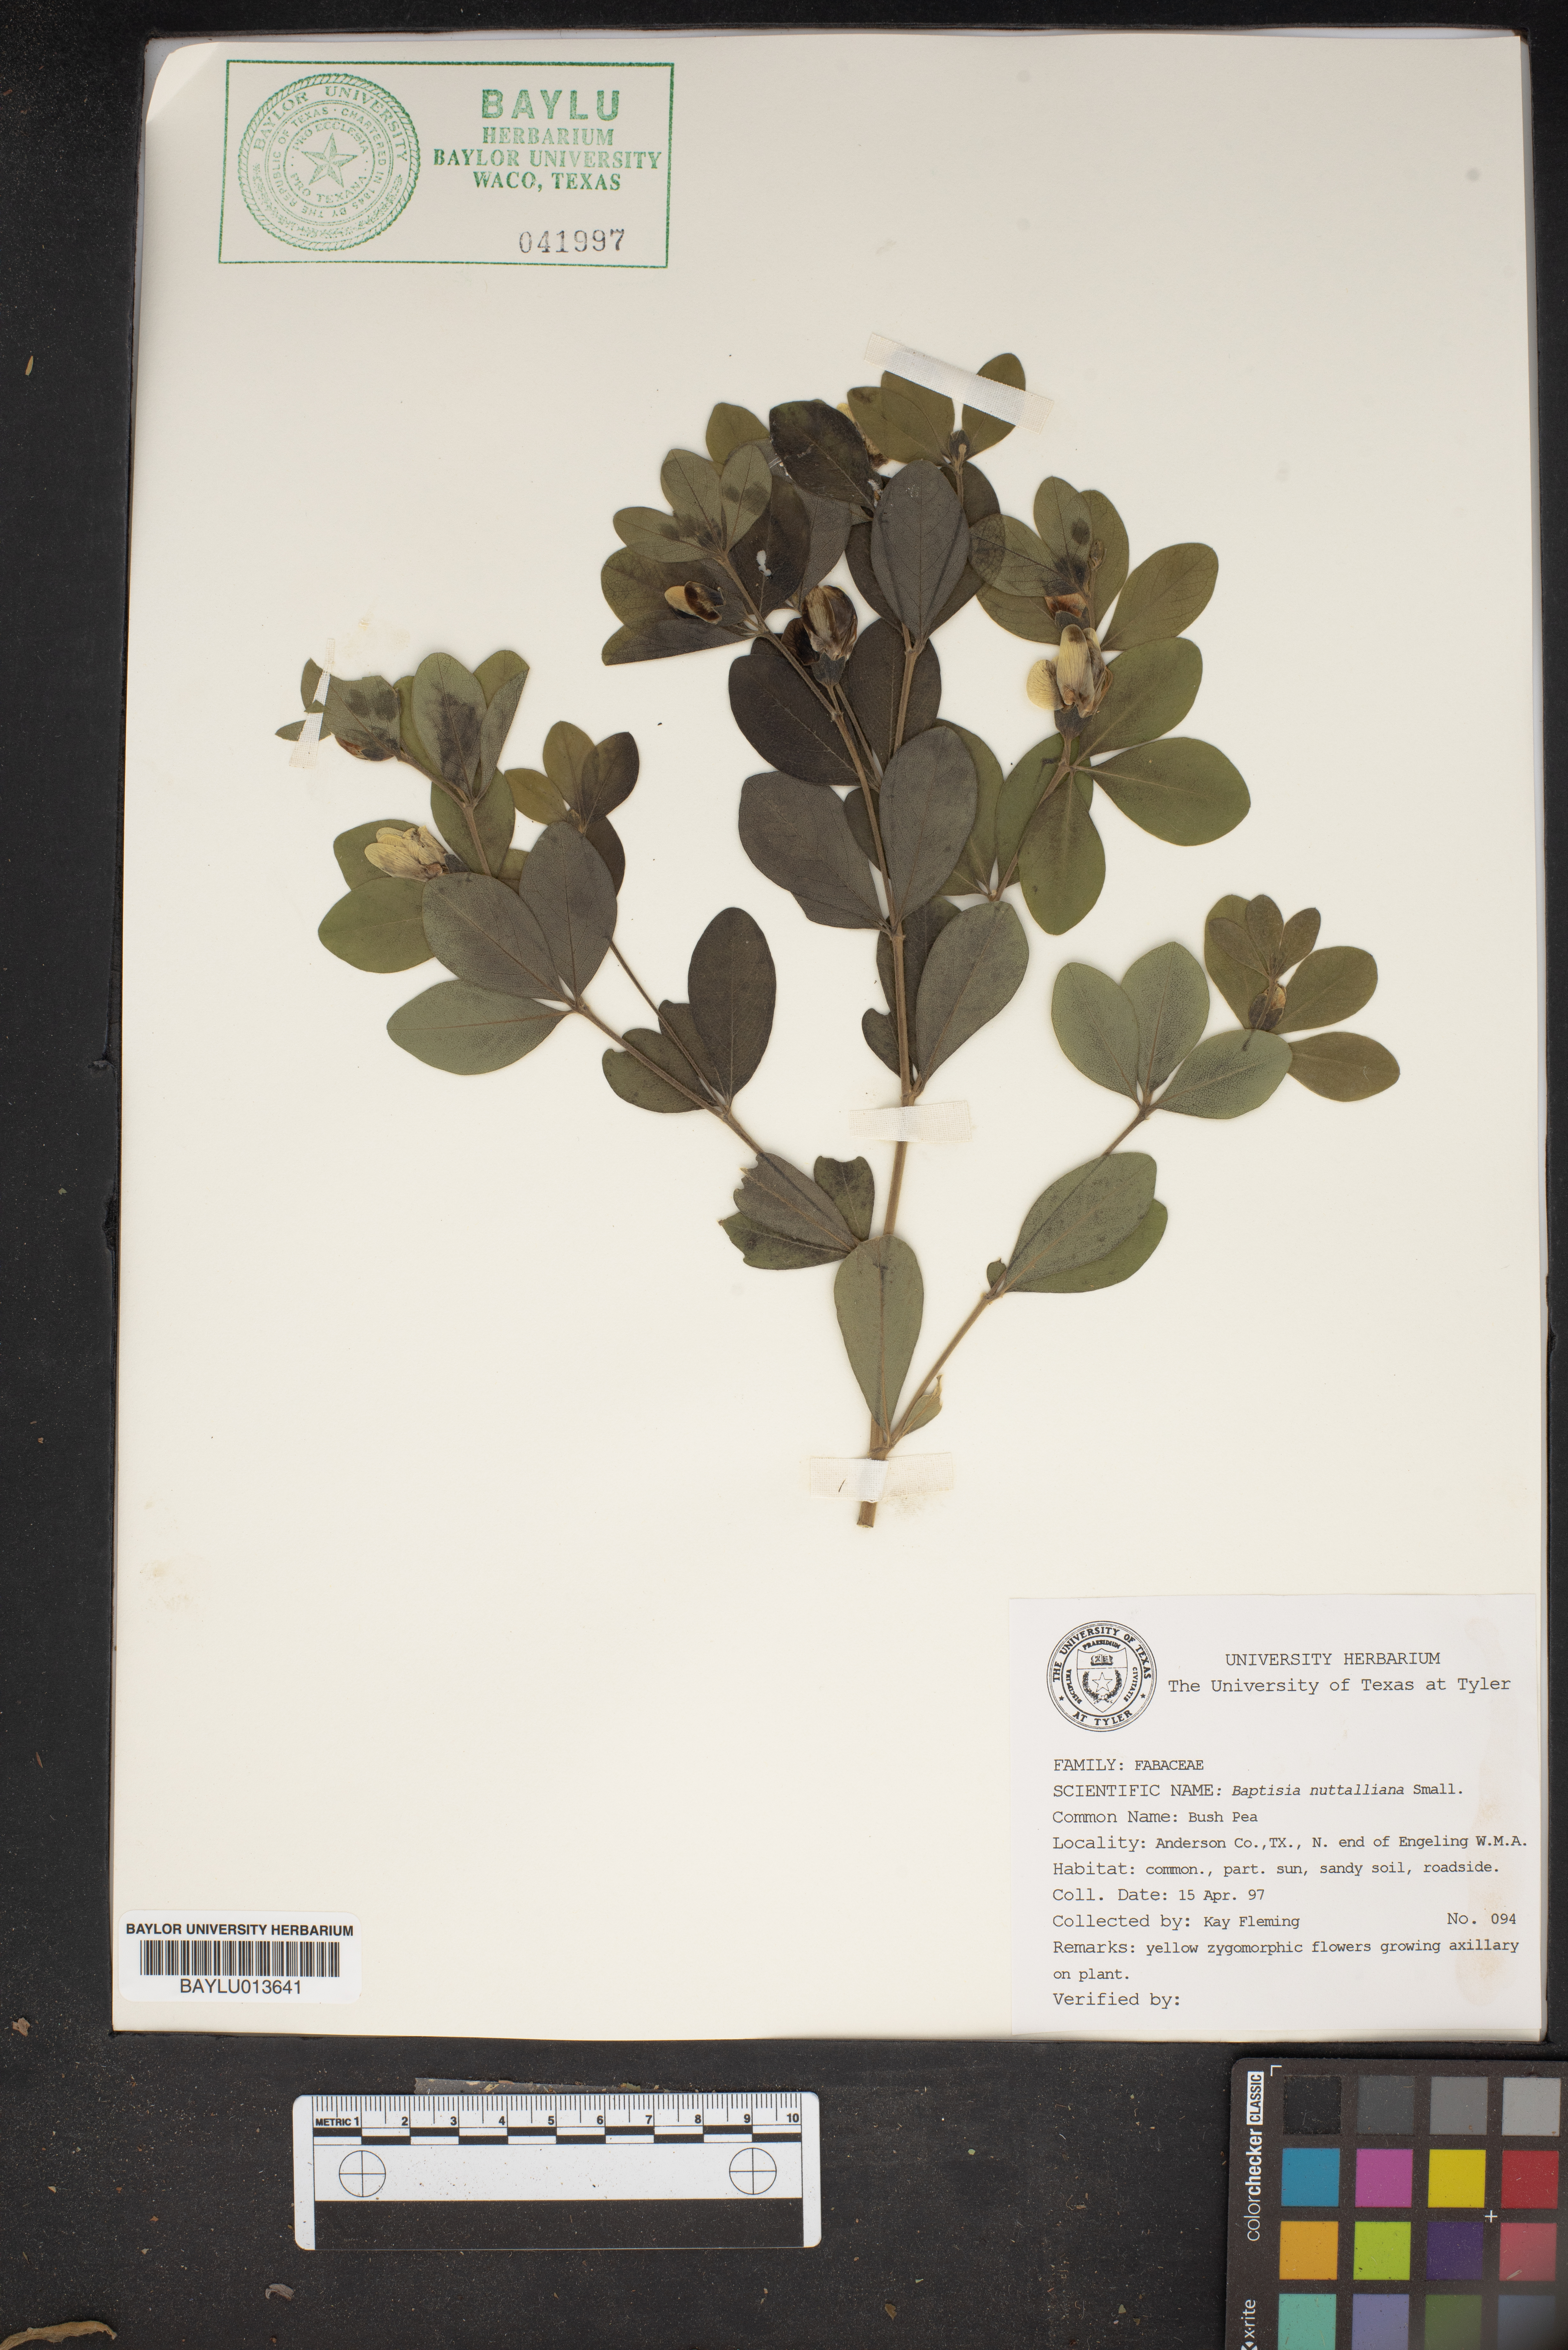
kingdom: Plantae
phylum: Tracheophyta
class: Magnoliopsida
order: Fabales
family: Fabaceae
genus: Baptisia
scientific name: Baptisia nuttalliana
